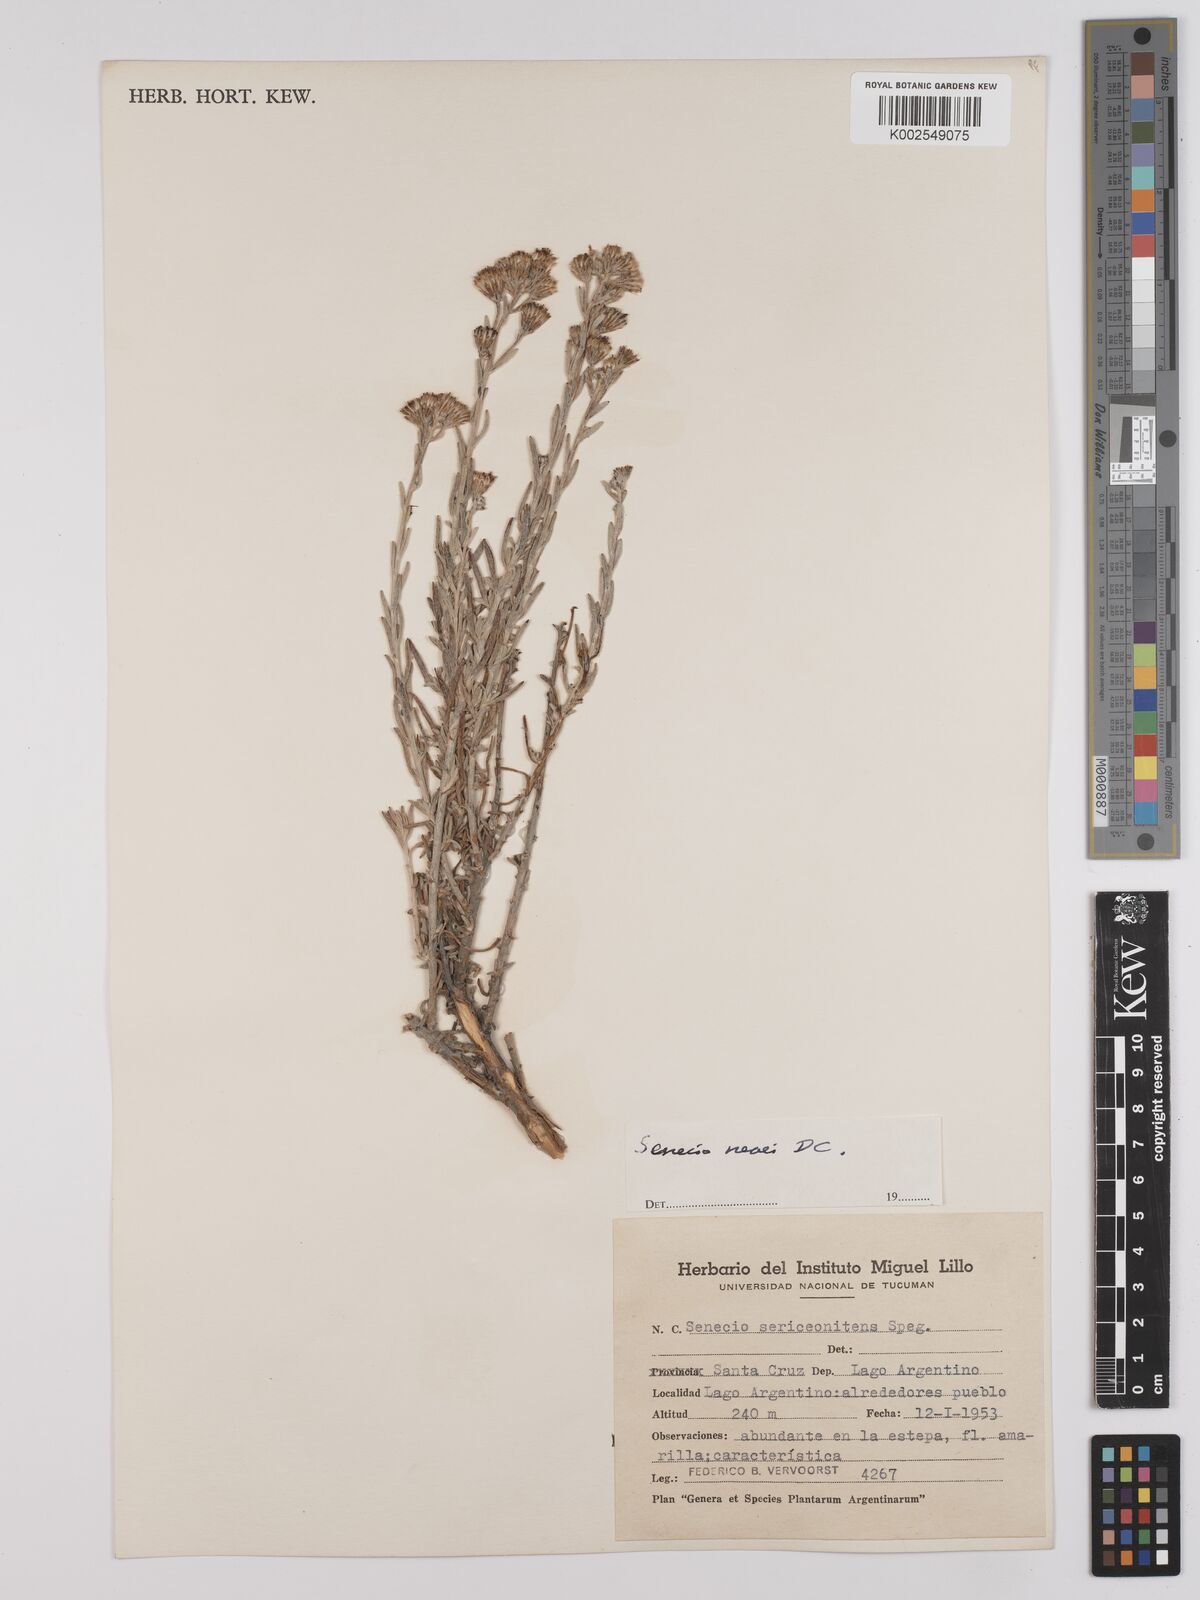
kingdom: Plantae
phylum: Tracheophyta
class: Magnoliopsida
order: Asterales
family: Asteraceae
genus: Senecio
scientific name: Senecio neaei
